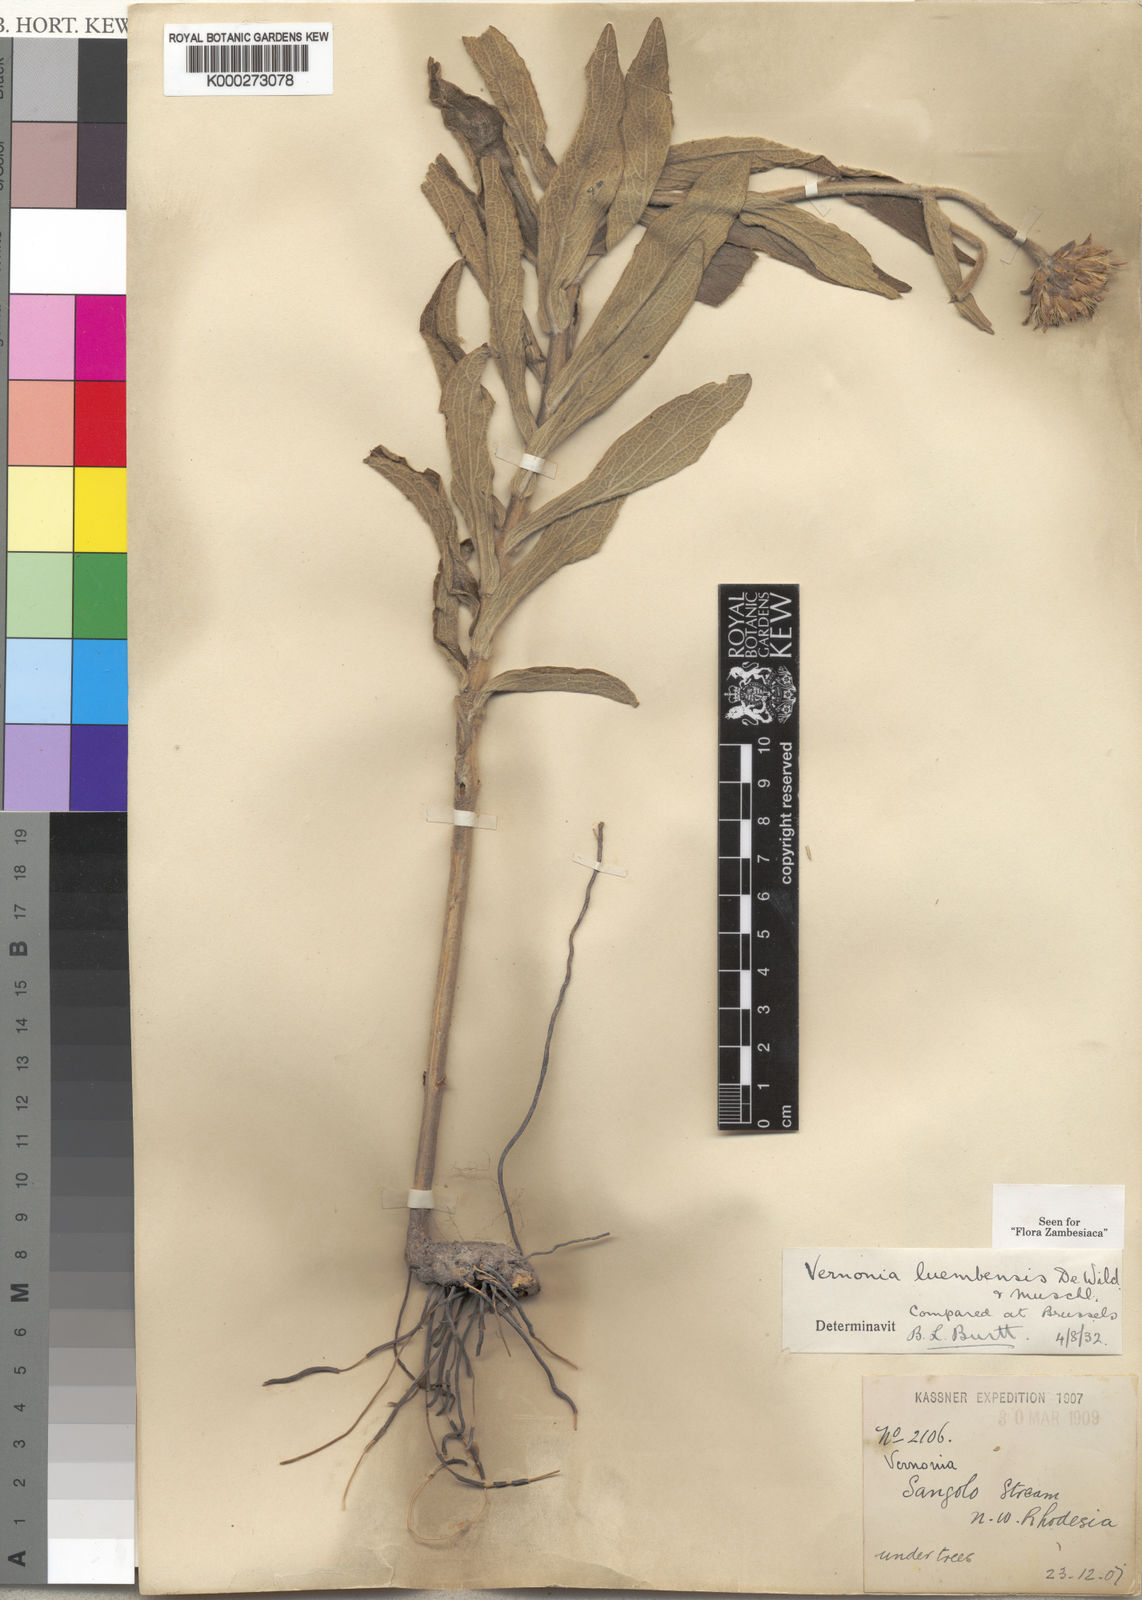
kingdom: Plantae
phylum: Tracheophyta
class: Magnoliopsida
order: Asterales
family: Asteraceae
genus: Vernonella
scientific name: Vernonella luembensis
